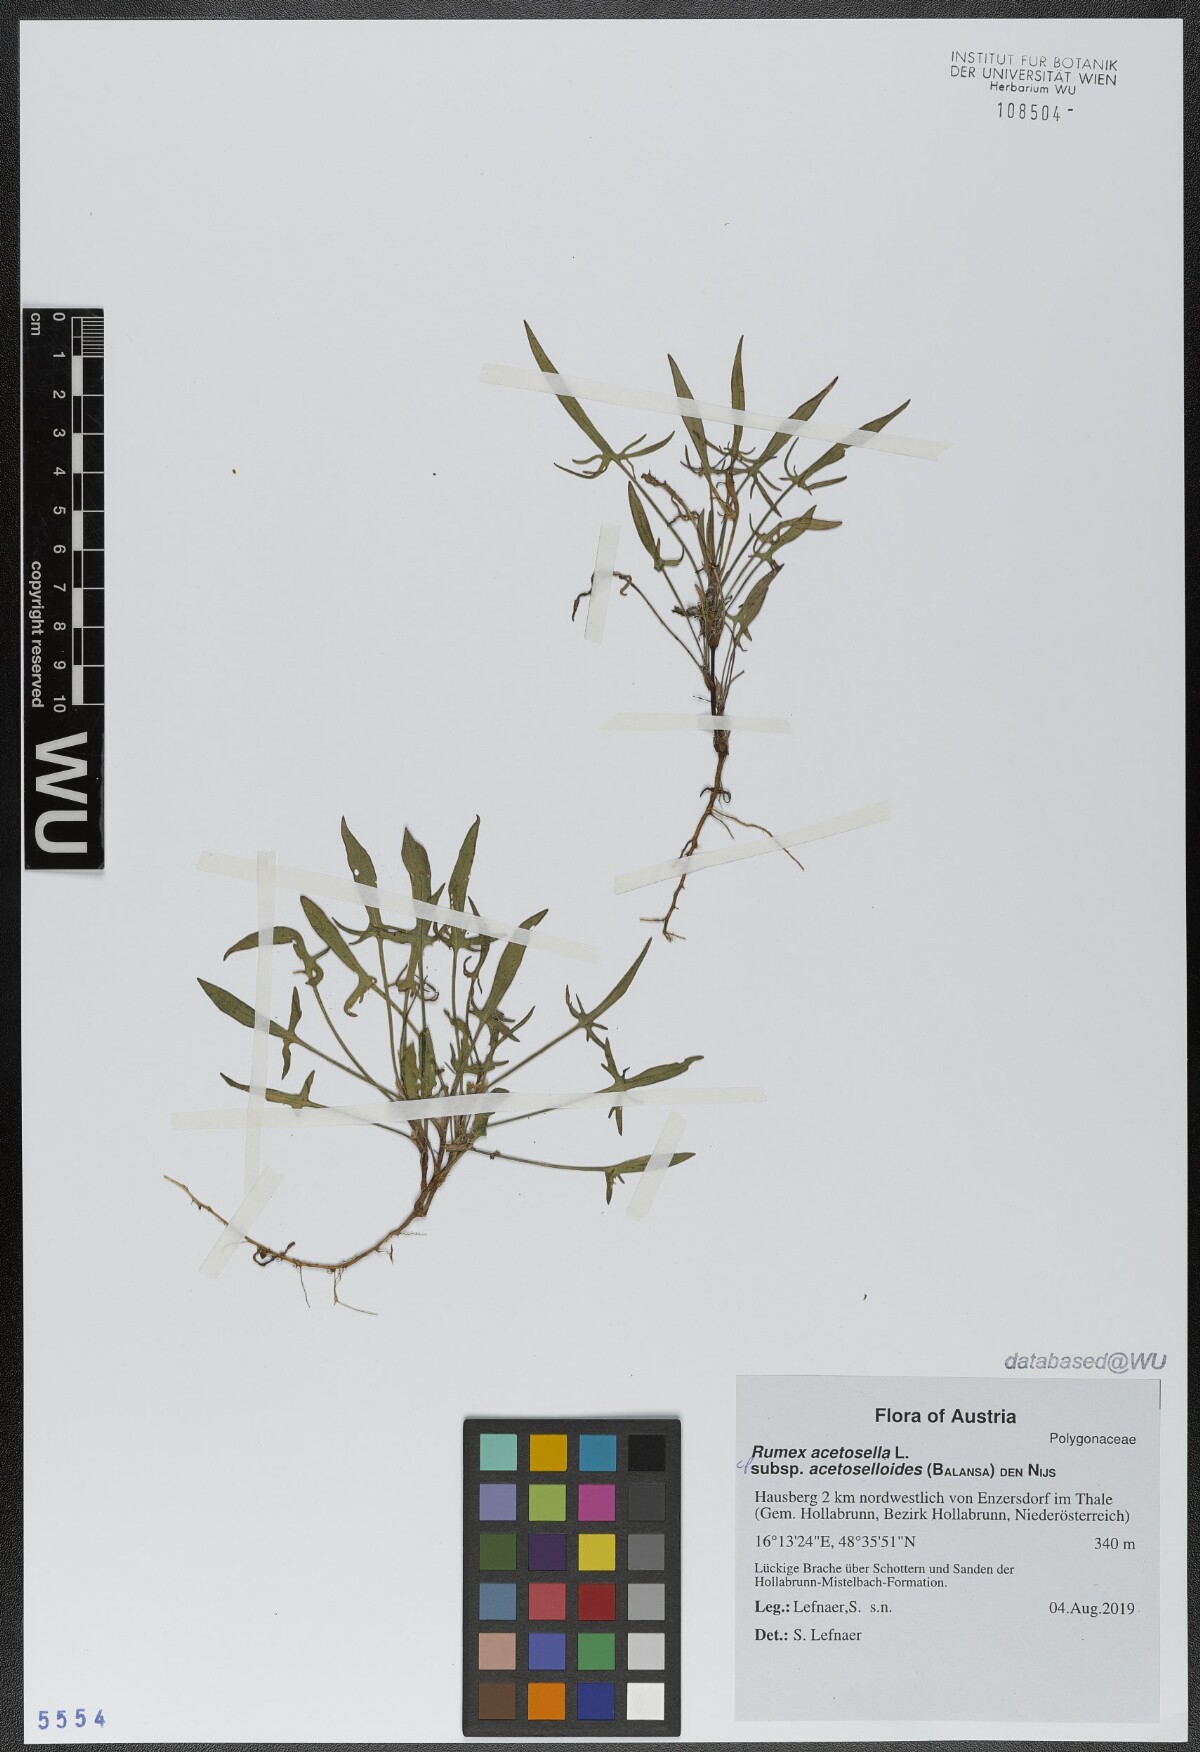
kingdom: Plantae
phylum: Tracheophyta
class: Magnoliopsida
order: Caryophyllales
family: Polygonaceae
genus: Rumex
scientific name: Rumex acetosella
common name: Common sheep sorrel
